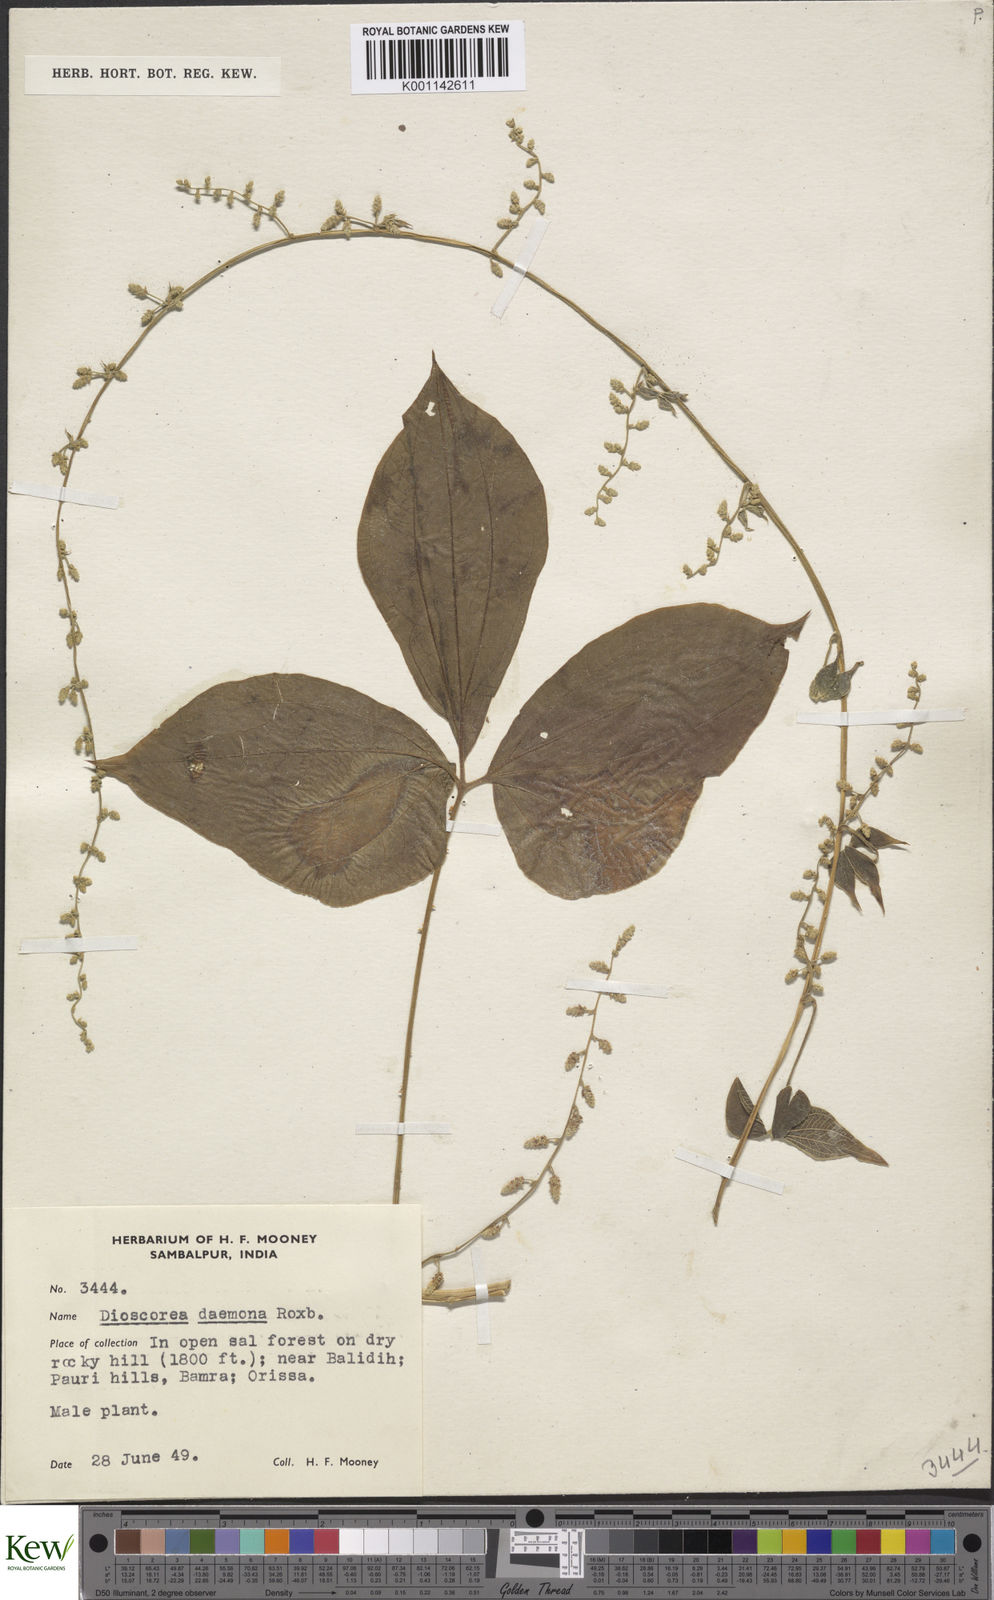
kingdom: Plantae
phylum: Tracheophyta
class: Liliopsida
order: Dioscoreales
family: Dioscoreaceae
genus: Dioscorea
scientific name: Dioscorea hispida
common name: Asiatic bitter yam
